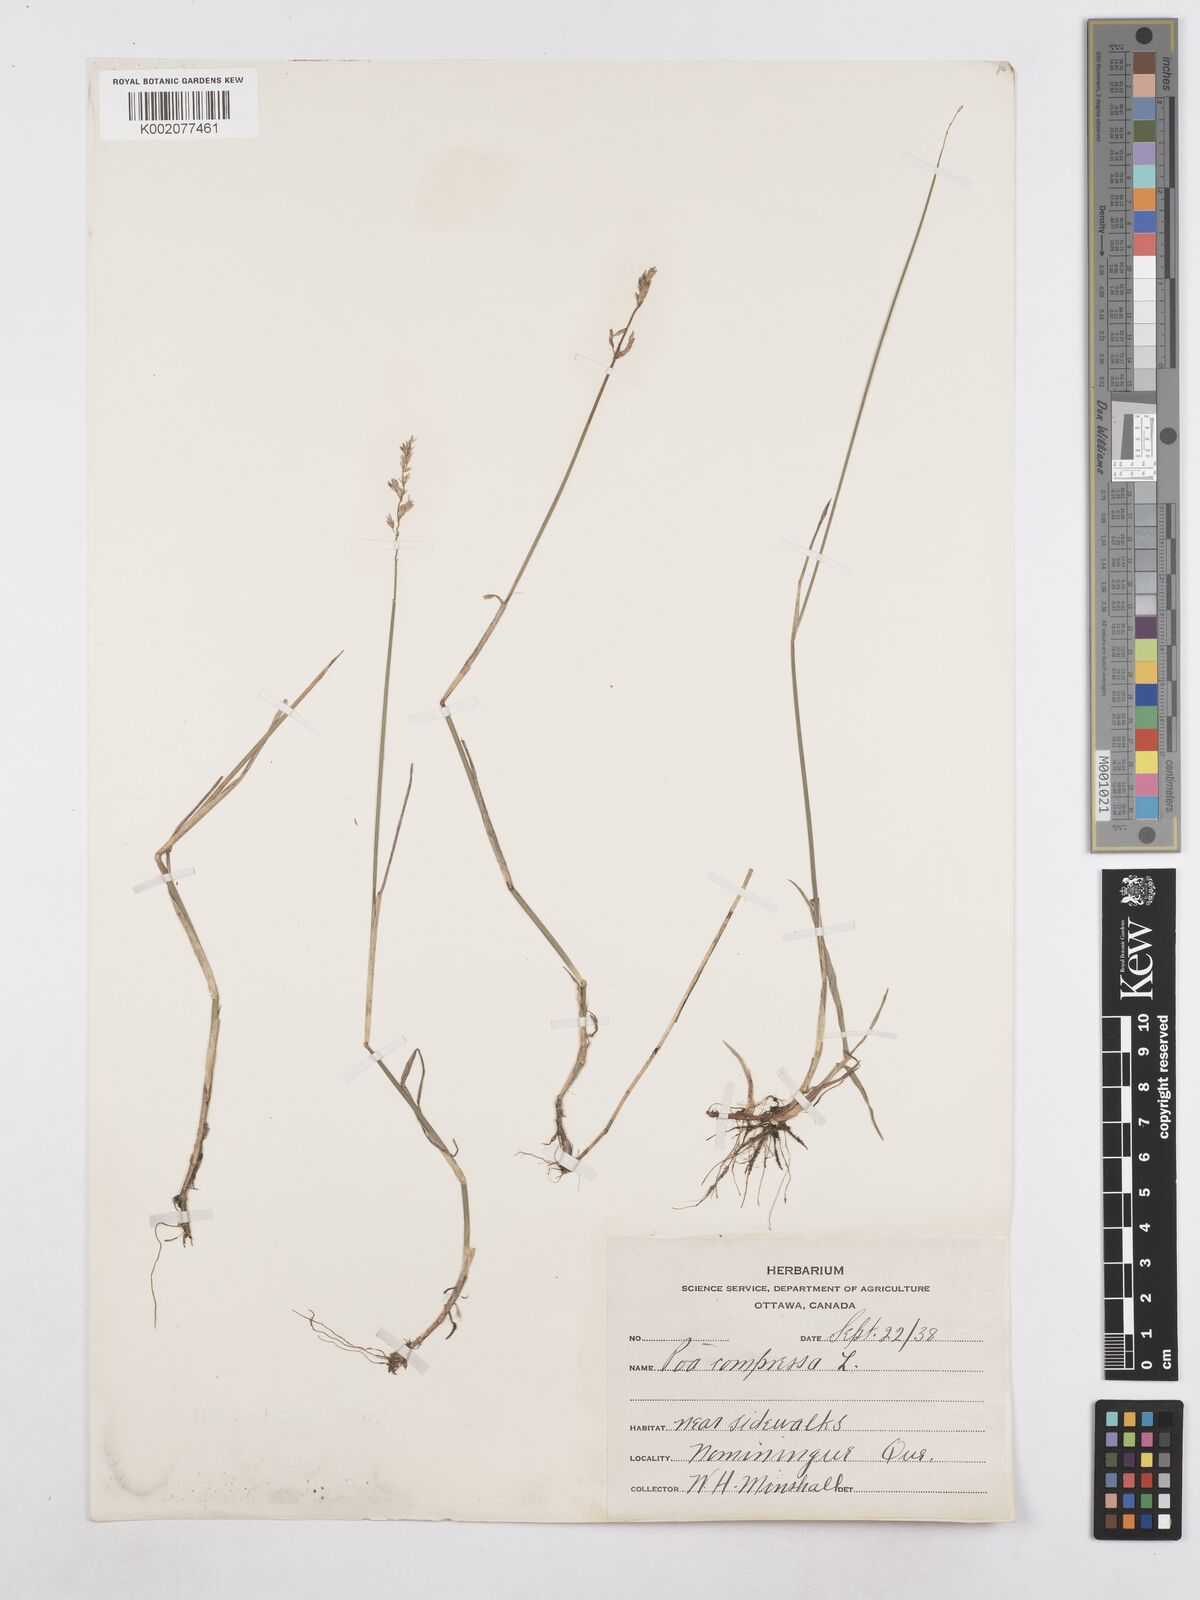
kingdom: Plantae
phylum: Tracheophyta
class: Liliopsida
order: Poales
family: Poaceae
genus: Poa
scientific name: Poa compressa
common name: Canada bluegrass
